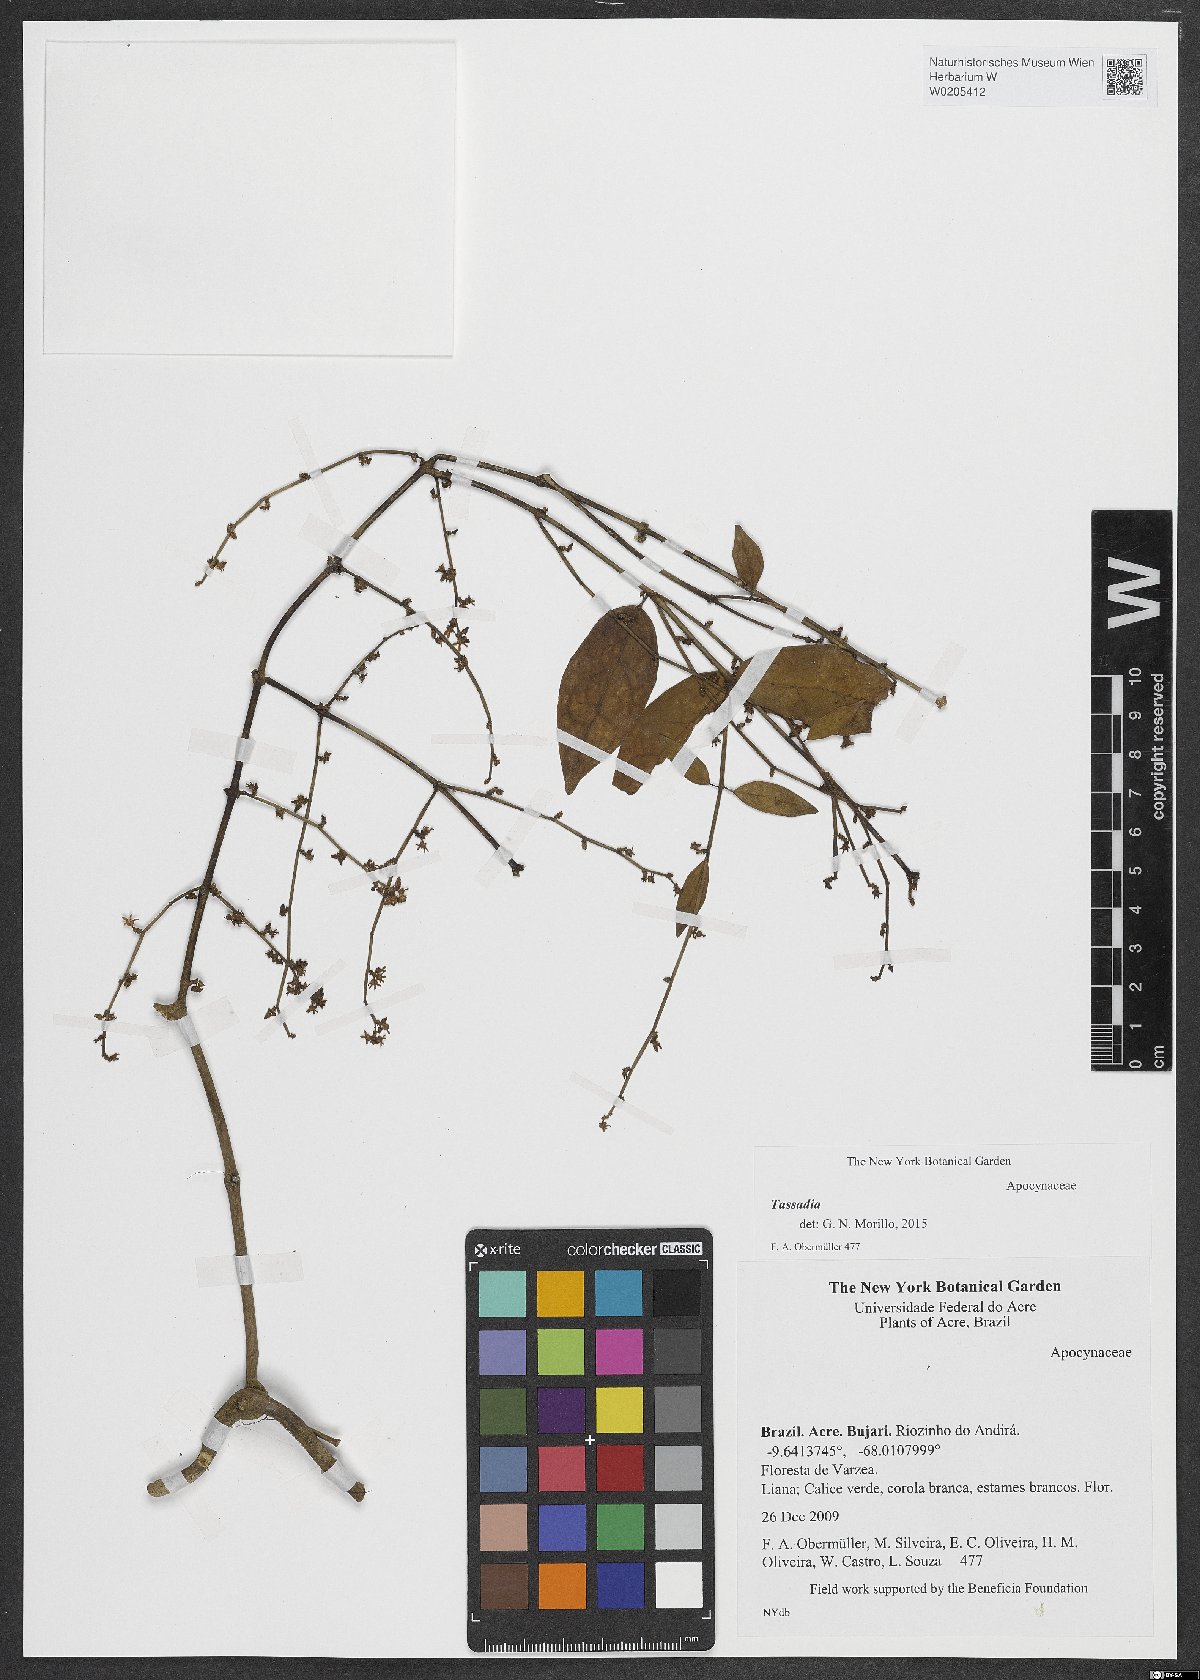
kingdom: Plantae
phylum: Tracheophyta
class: Magnoliopsida
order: Gentianales
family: Apocynaceae
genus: Tassadia
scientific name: Tassadia
